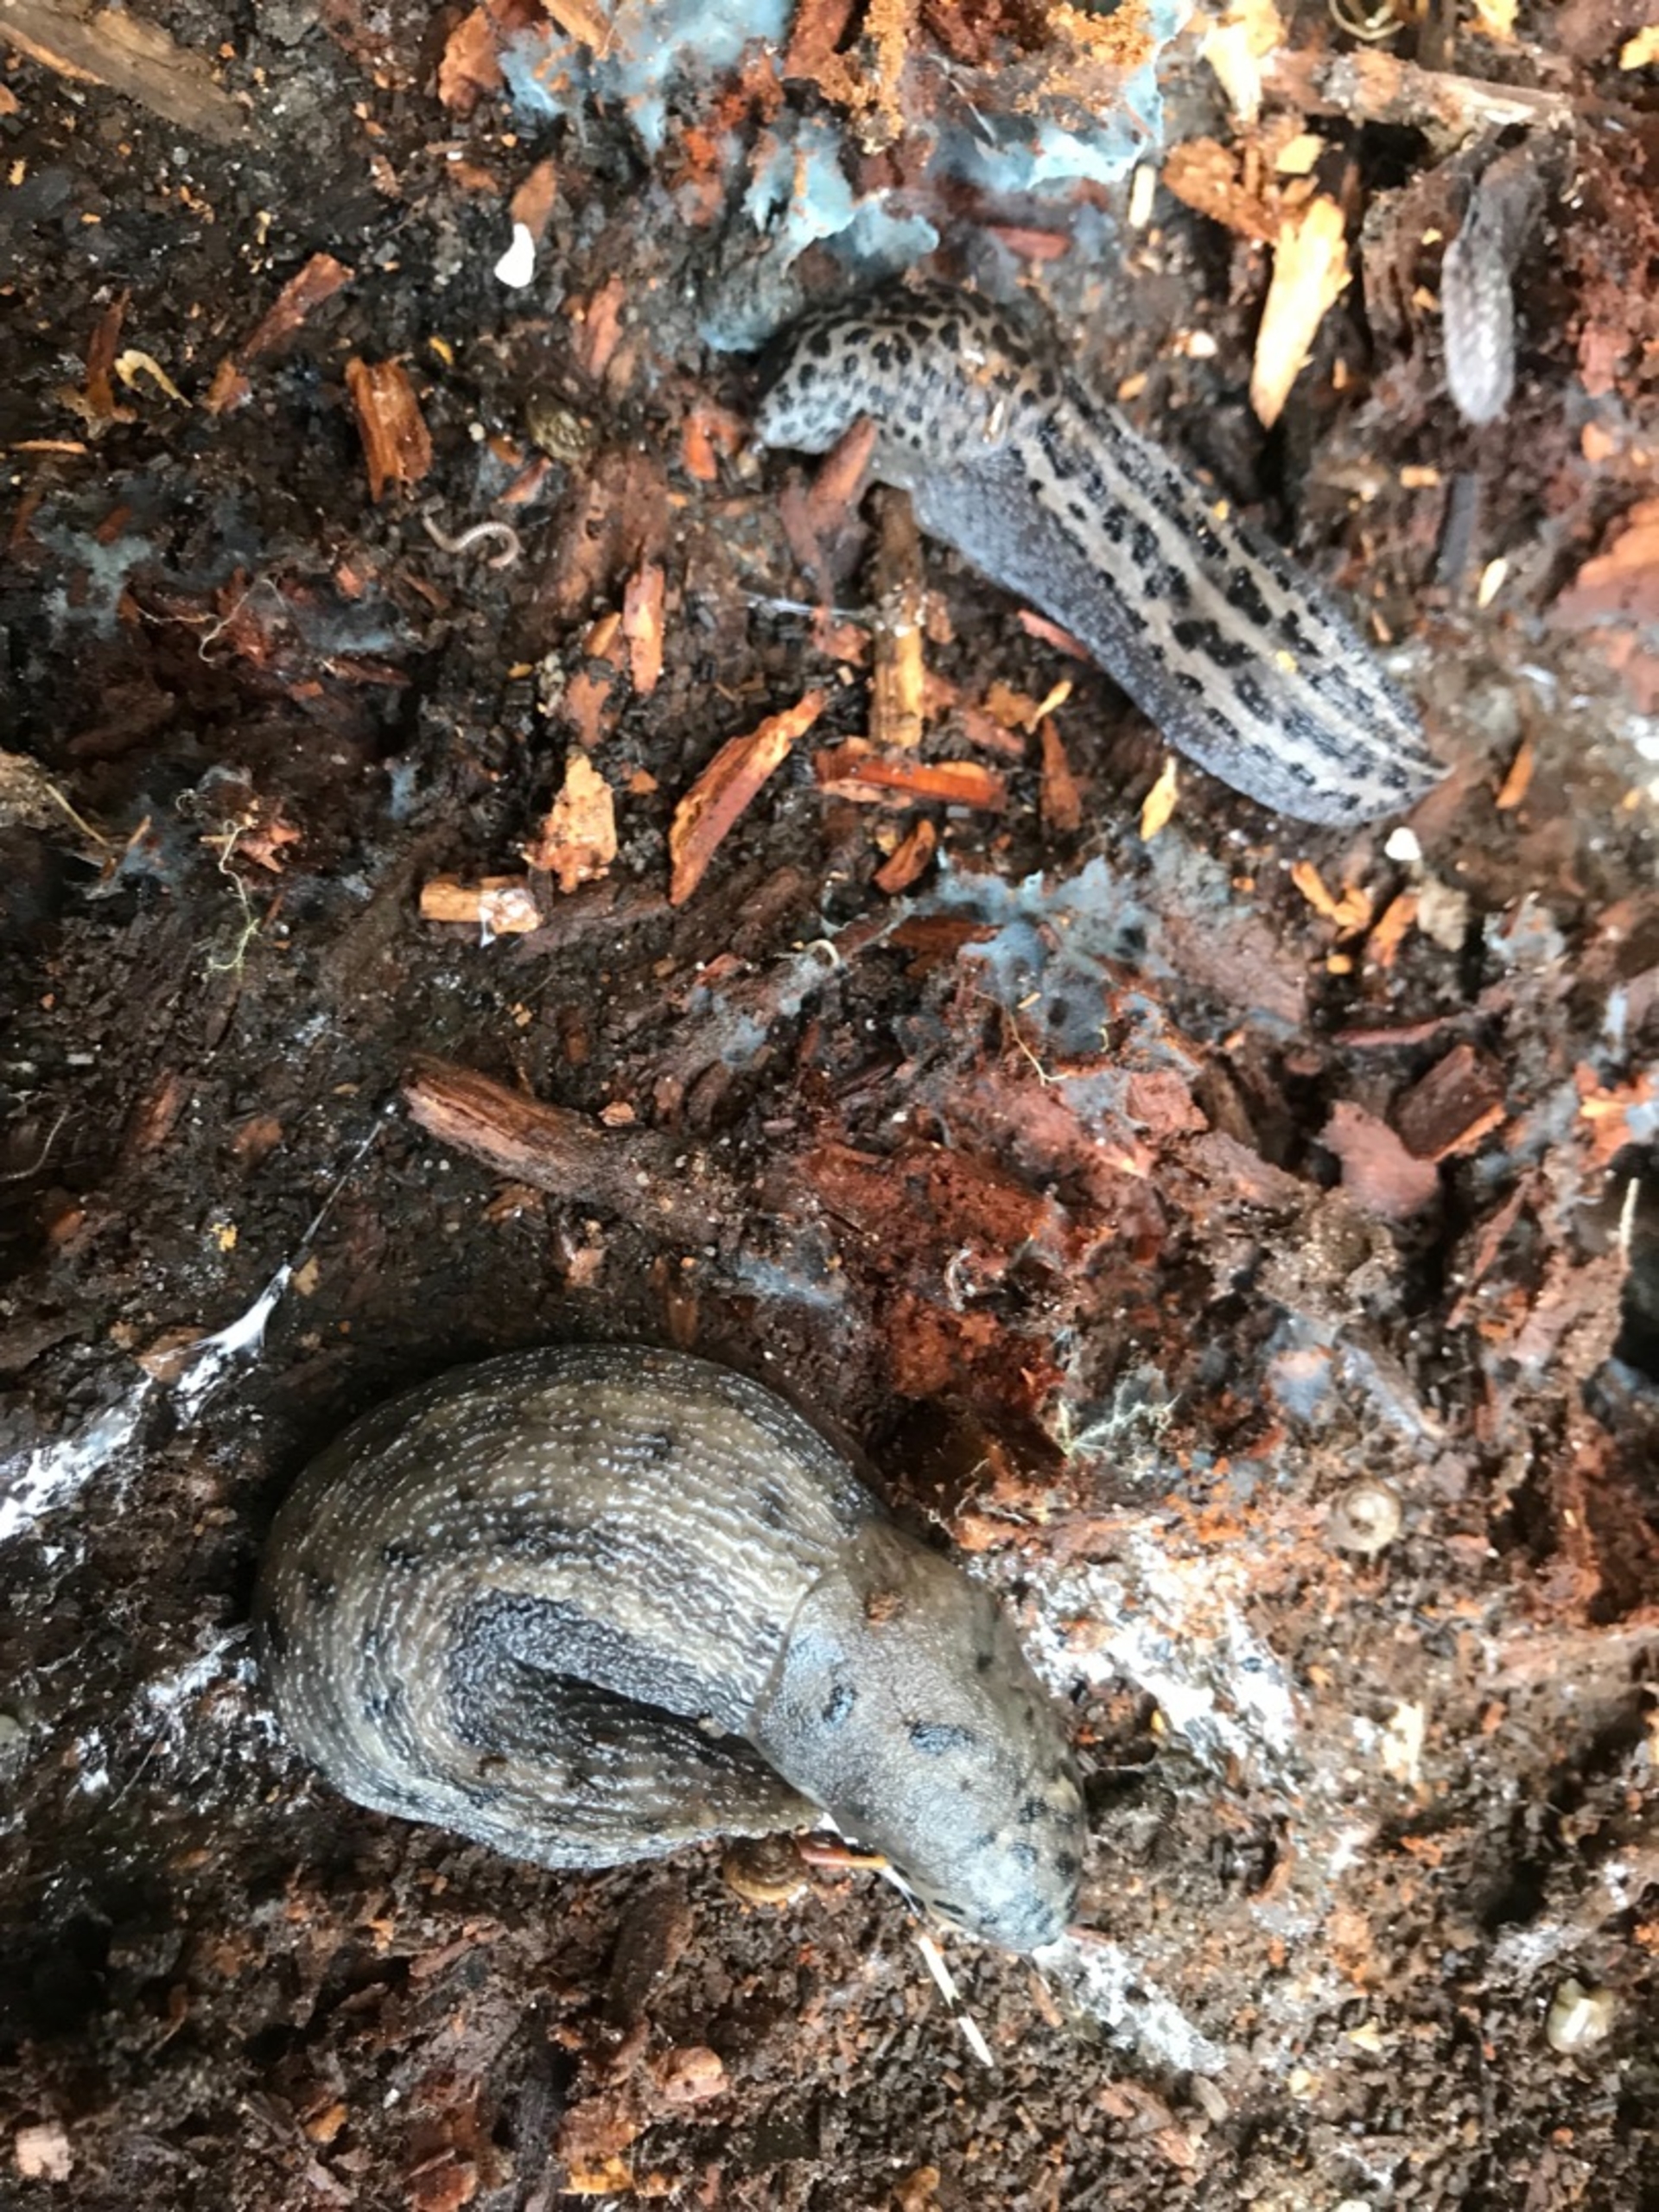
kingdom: Animalia
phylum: Mollusca
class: Gastropoda
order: Stylommatophora
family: Limacidae
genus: Limax
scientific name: Limax maximus
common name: Pantersnegl
